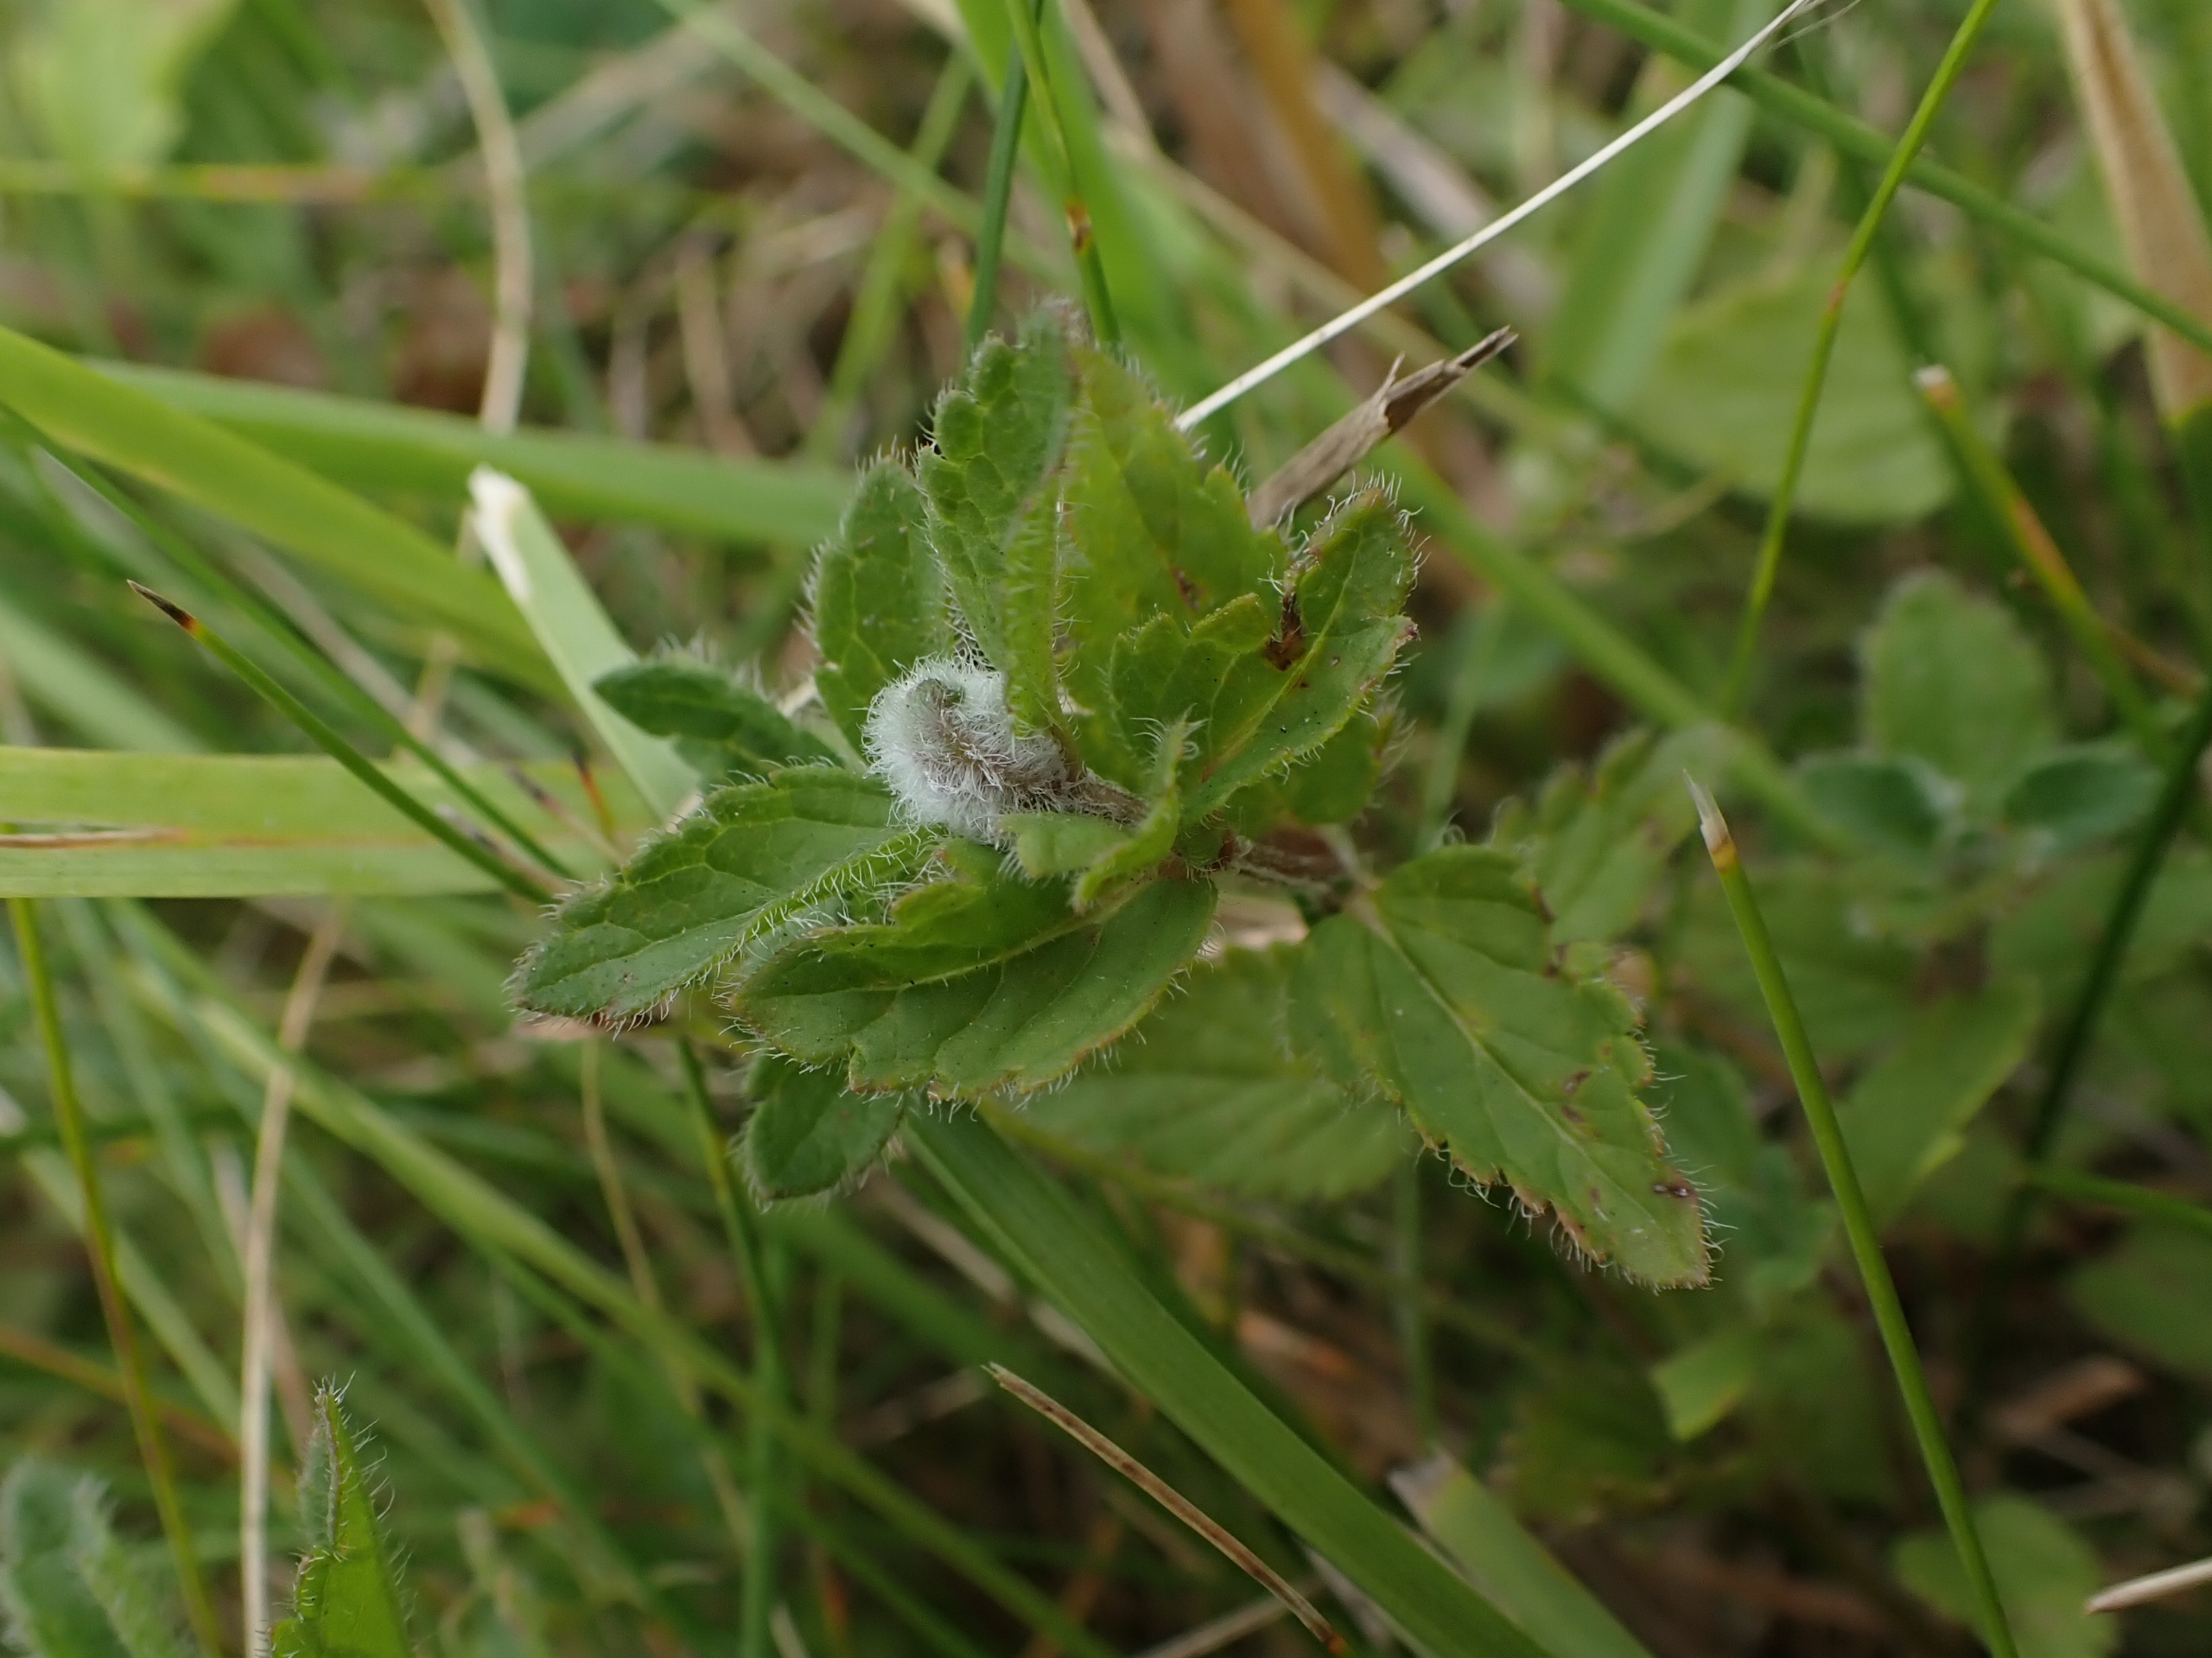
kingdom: Animalia
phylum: Arthropoda
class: Insecta
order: Diptera
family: Cecidomyiidae
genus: Jaapiella
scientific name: Jaapiella veronicae
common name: Ærenprisgalmyg
